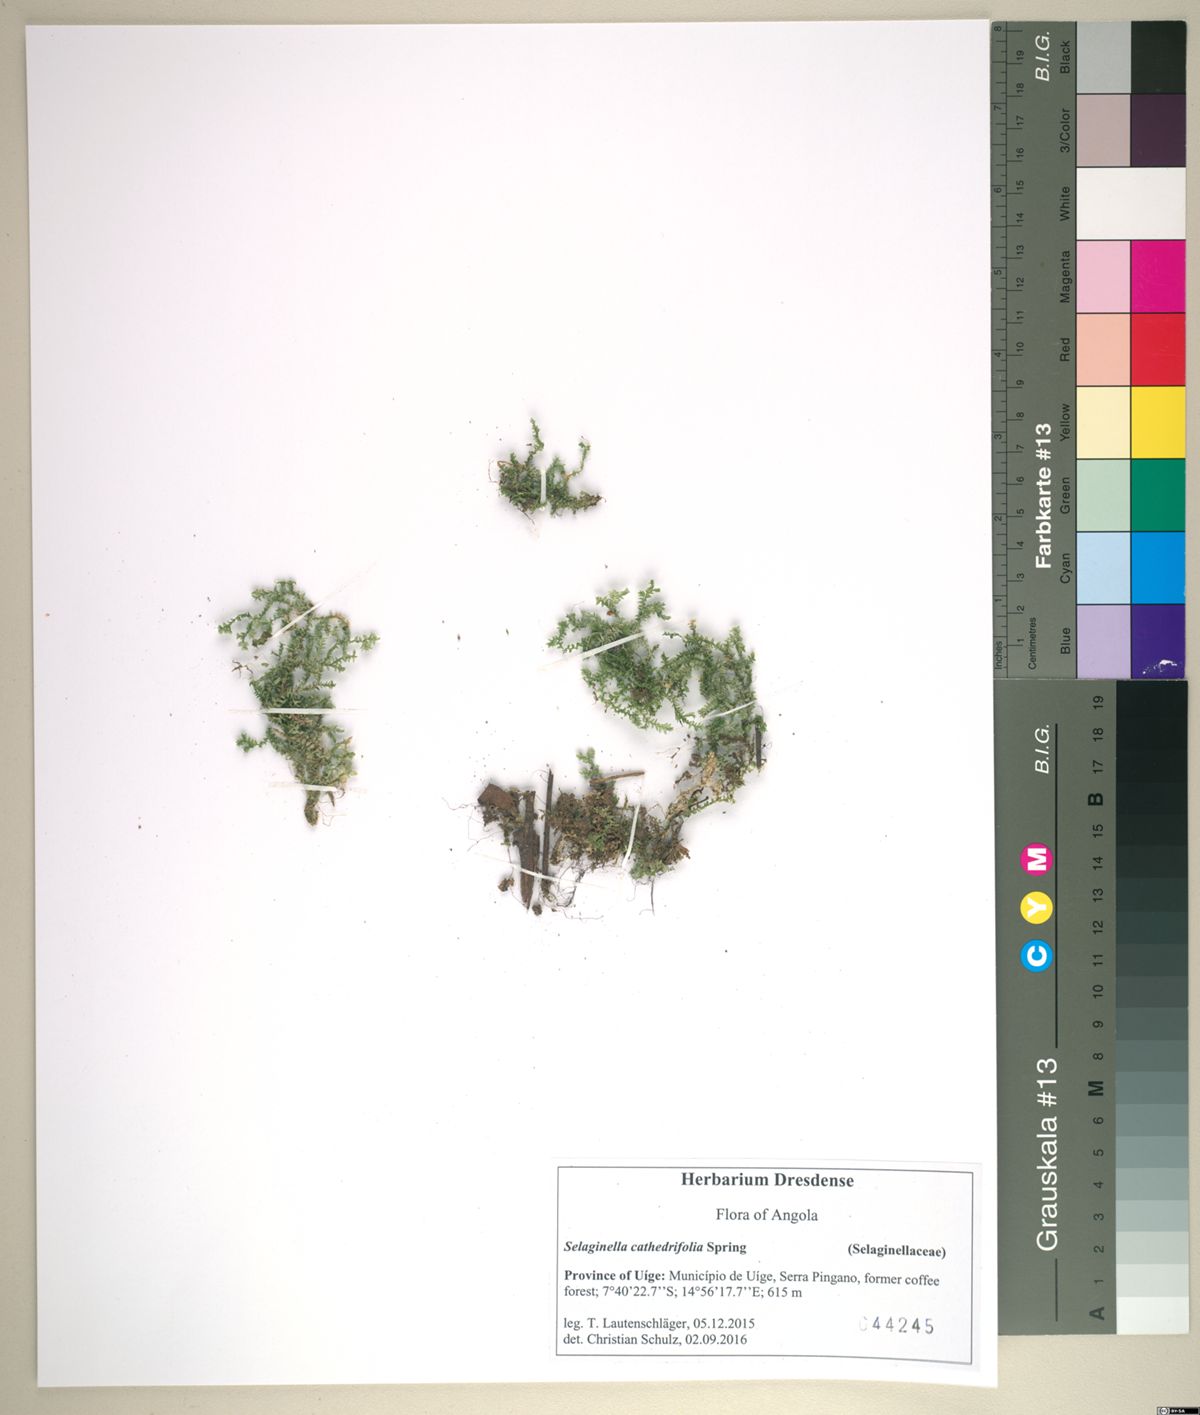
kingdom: Plantae
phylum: Tracheophyta
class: Lycopodiopsida
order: Selaginellales
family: Selaginellaceae
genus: Selaginella
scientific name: Selaginella cathedrifolia
